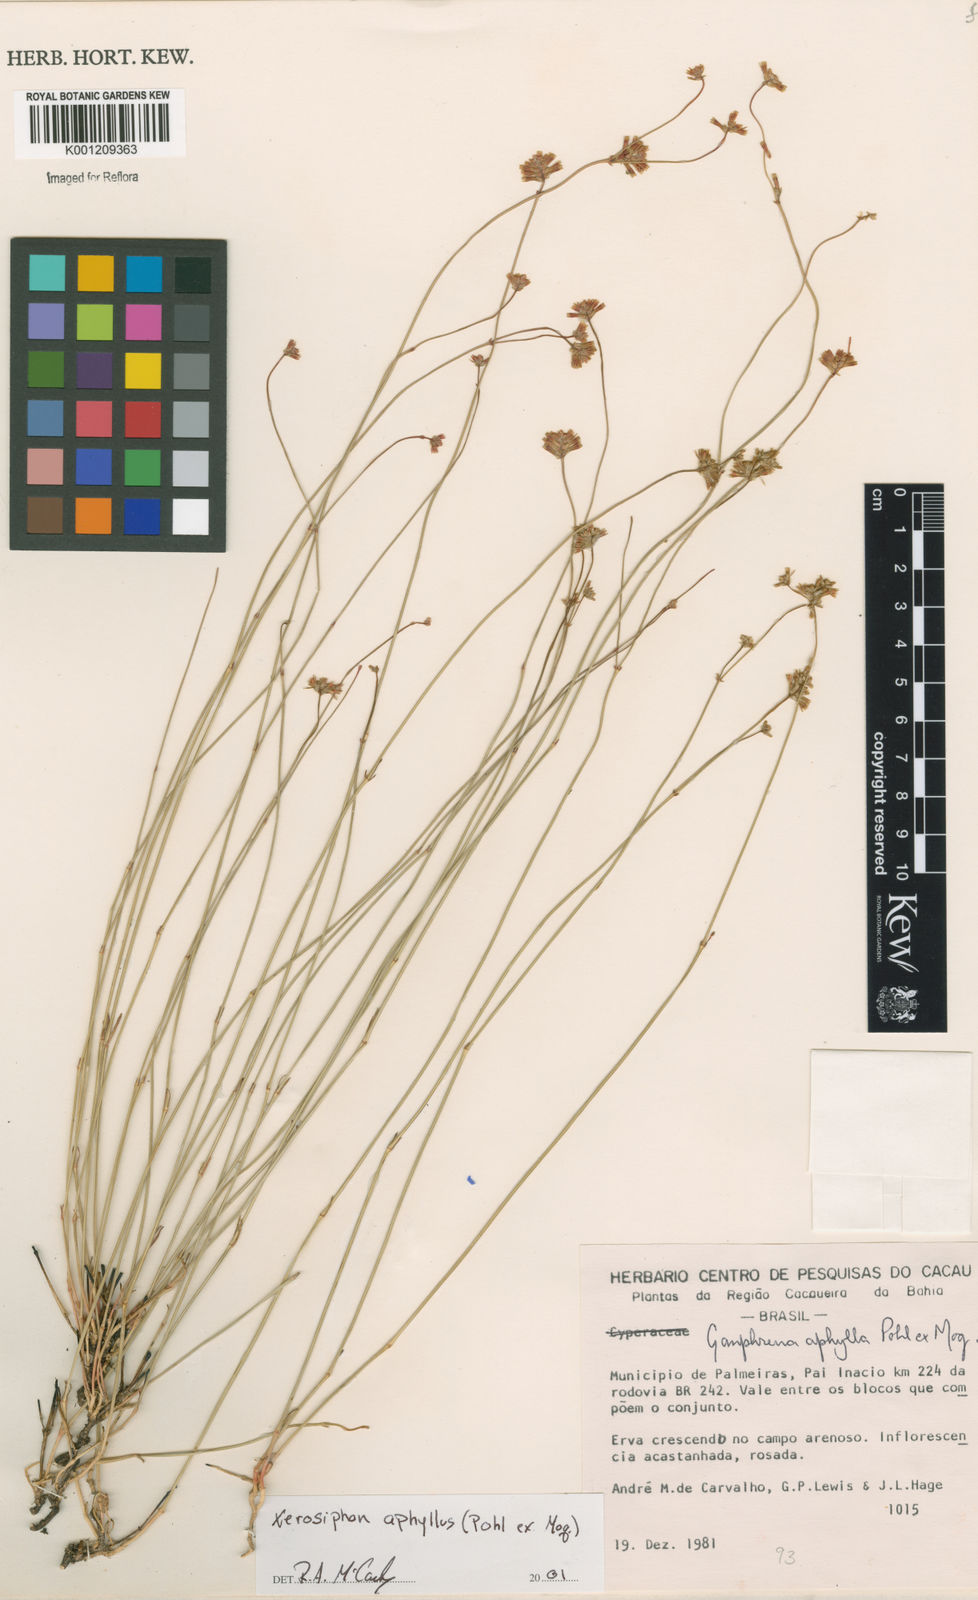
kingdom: Plantae
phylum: Tracheophyta
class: Magnoliopsida
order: Caryophyllales
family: Amaranthaceae
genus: Gomphrena
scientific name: Gomphrena aphylla
